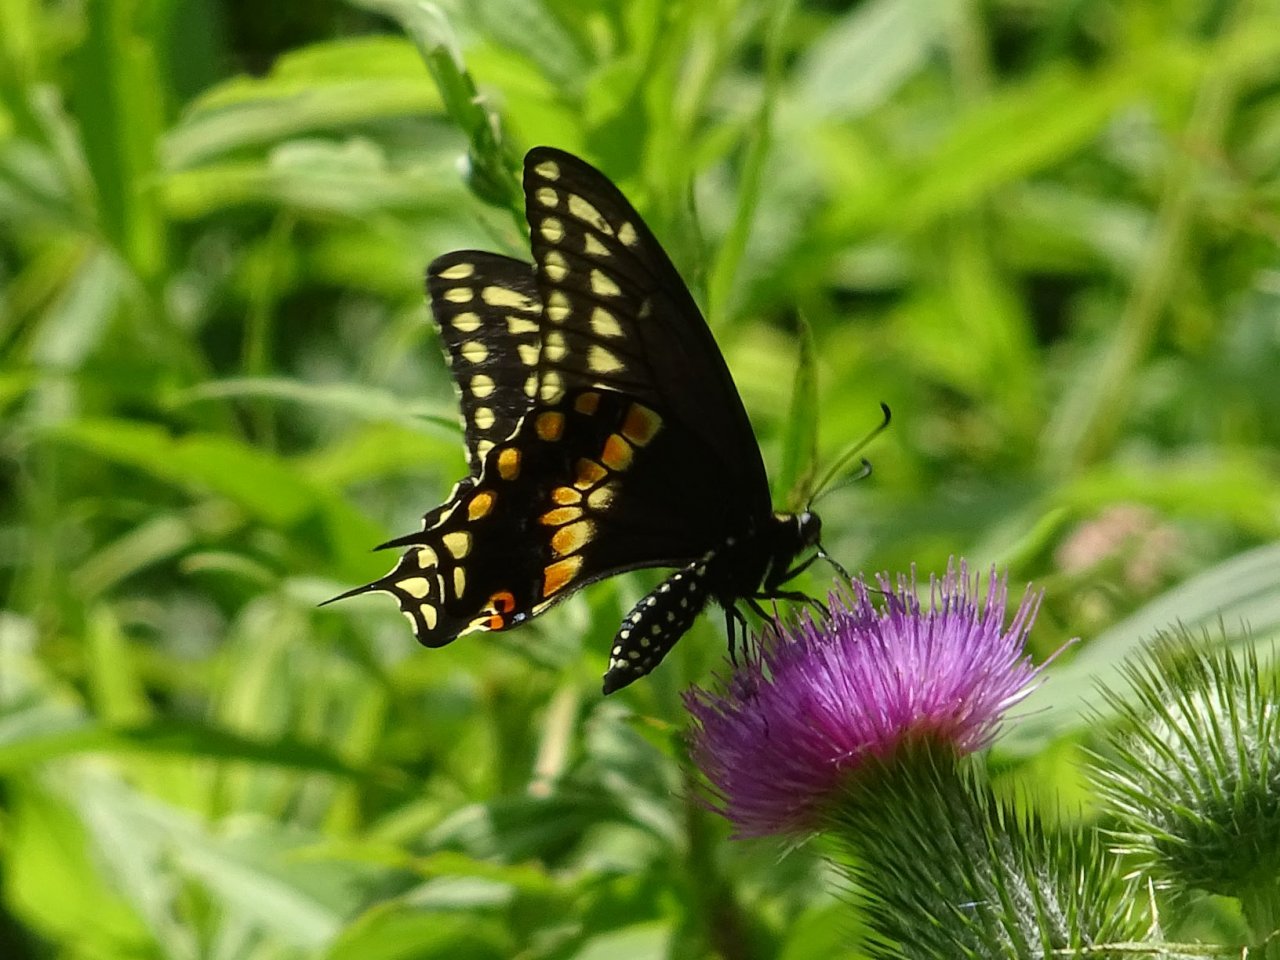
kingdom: Animalia
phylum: Arthropoda
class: Insecta
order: Lepidoptera
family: Papilionidae
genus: Papilio
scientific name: Papilio polyxenes
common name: Black Swallowtail
